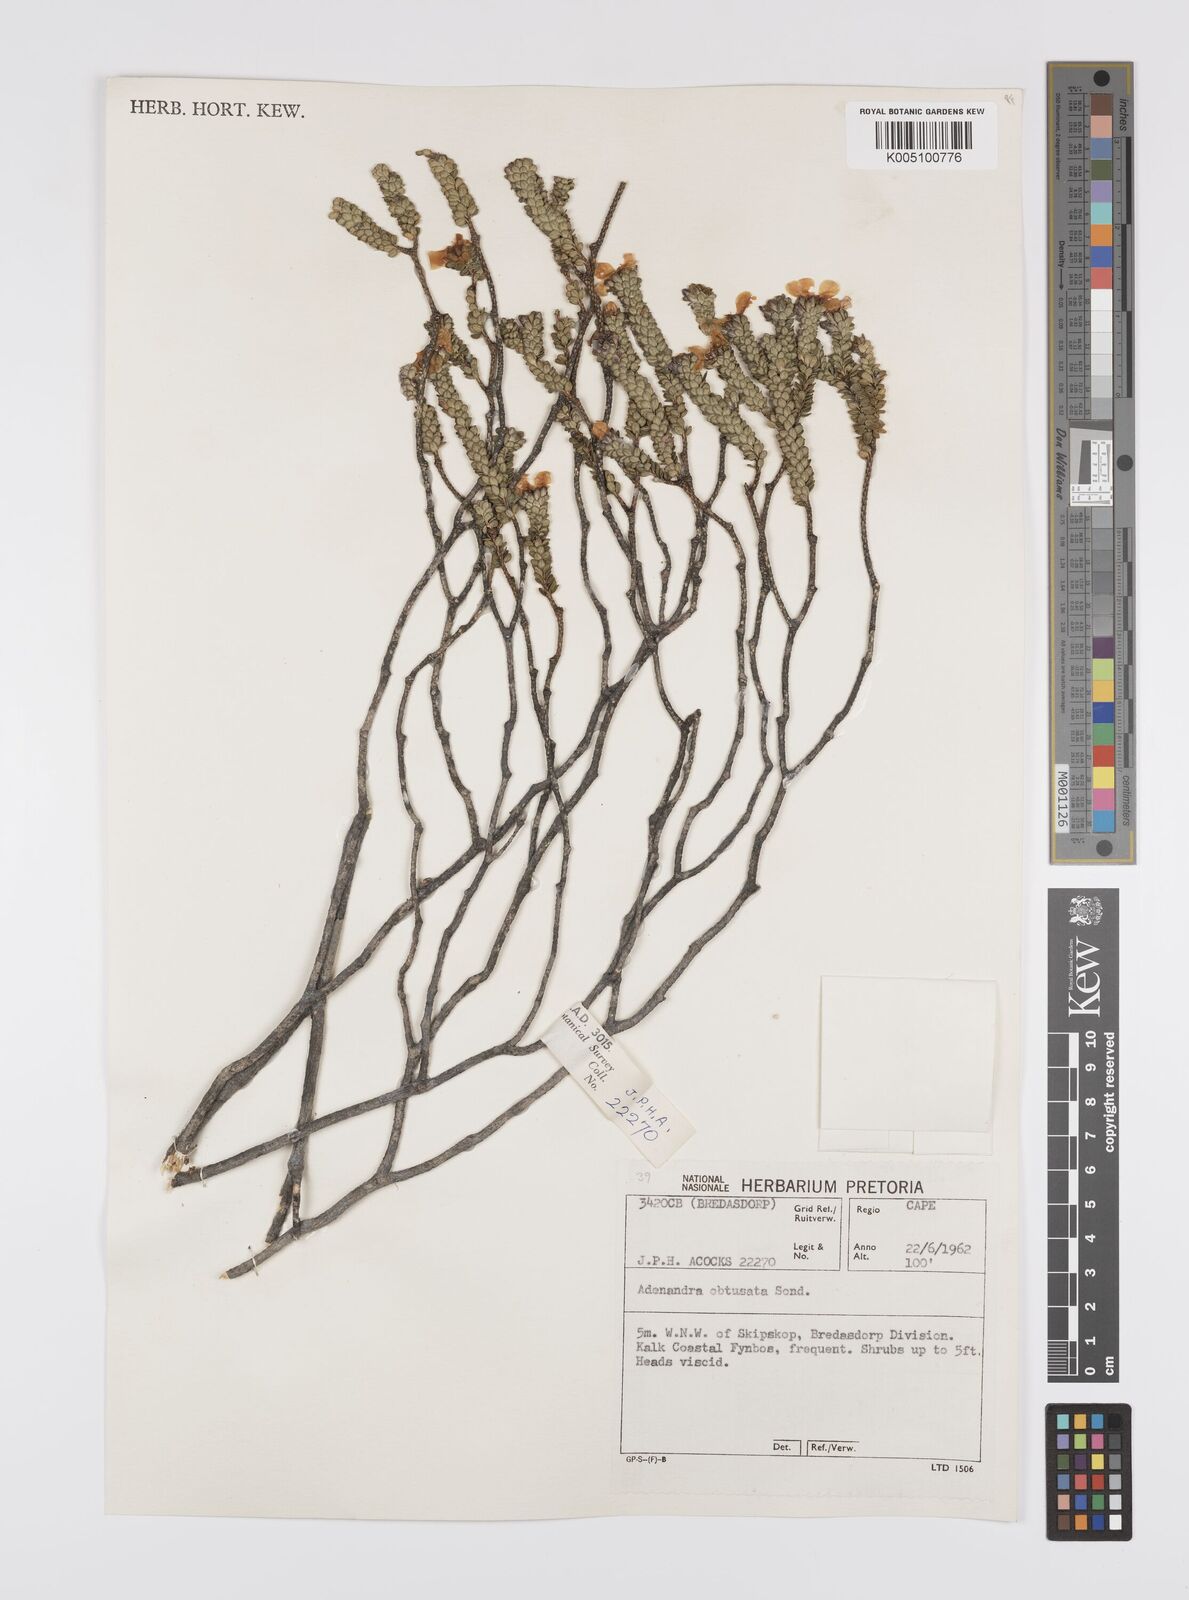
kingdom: Plantae
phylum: Tracheophyta
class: Magnoliopsida
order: Sapindales
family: Rutaceae
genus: Adenandra
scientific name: Adenandra obtusata
